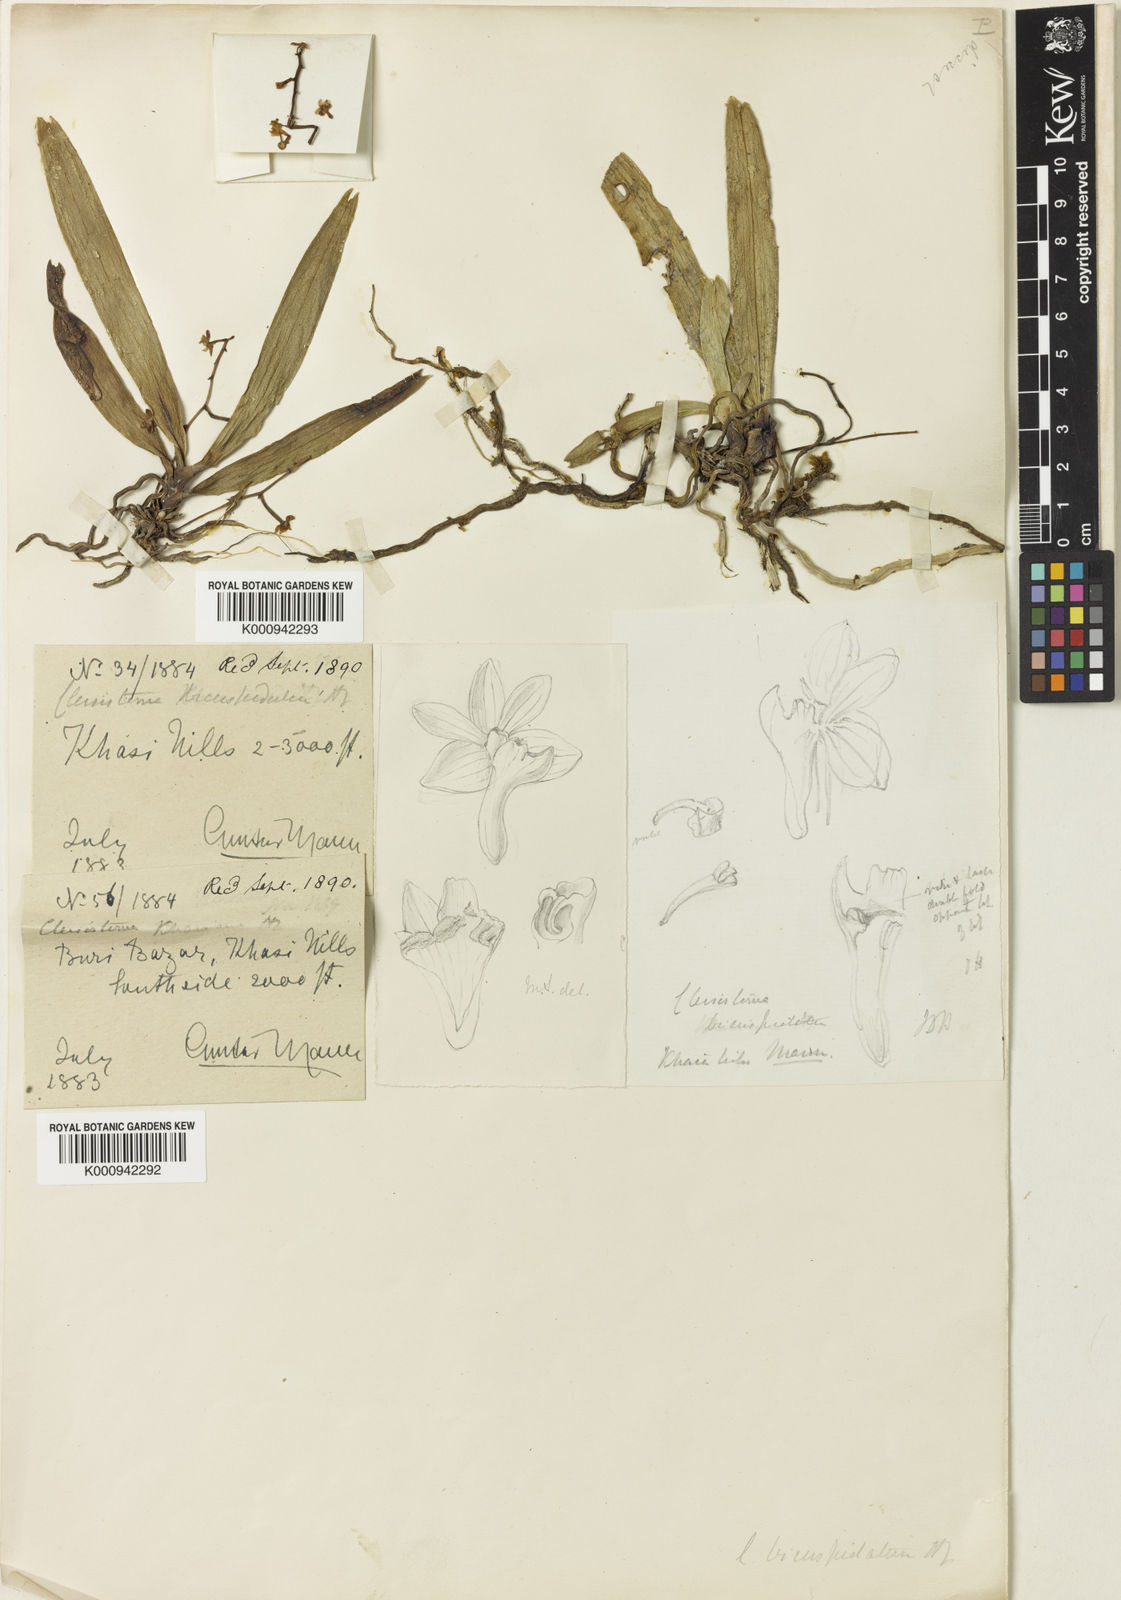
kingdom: Plantae
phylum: Tracheophyta
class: Liliopsida
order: Asparagales
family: Orchidaceae
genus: Cleisostoma
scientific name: Cleisostoma aspersum
